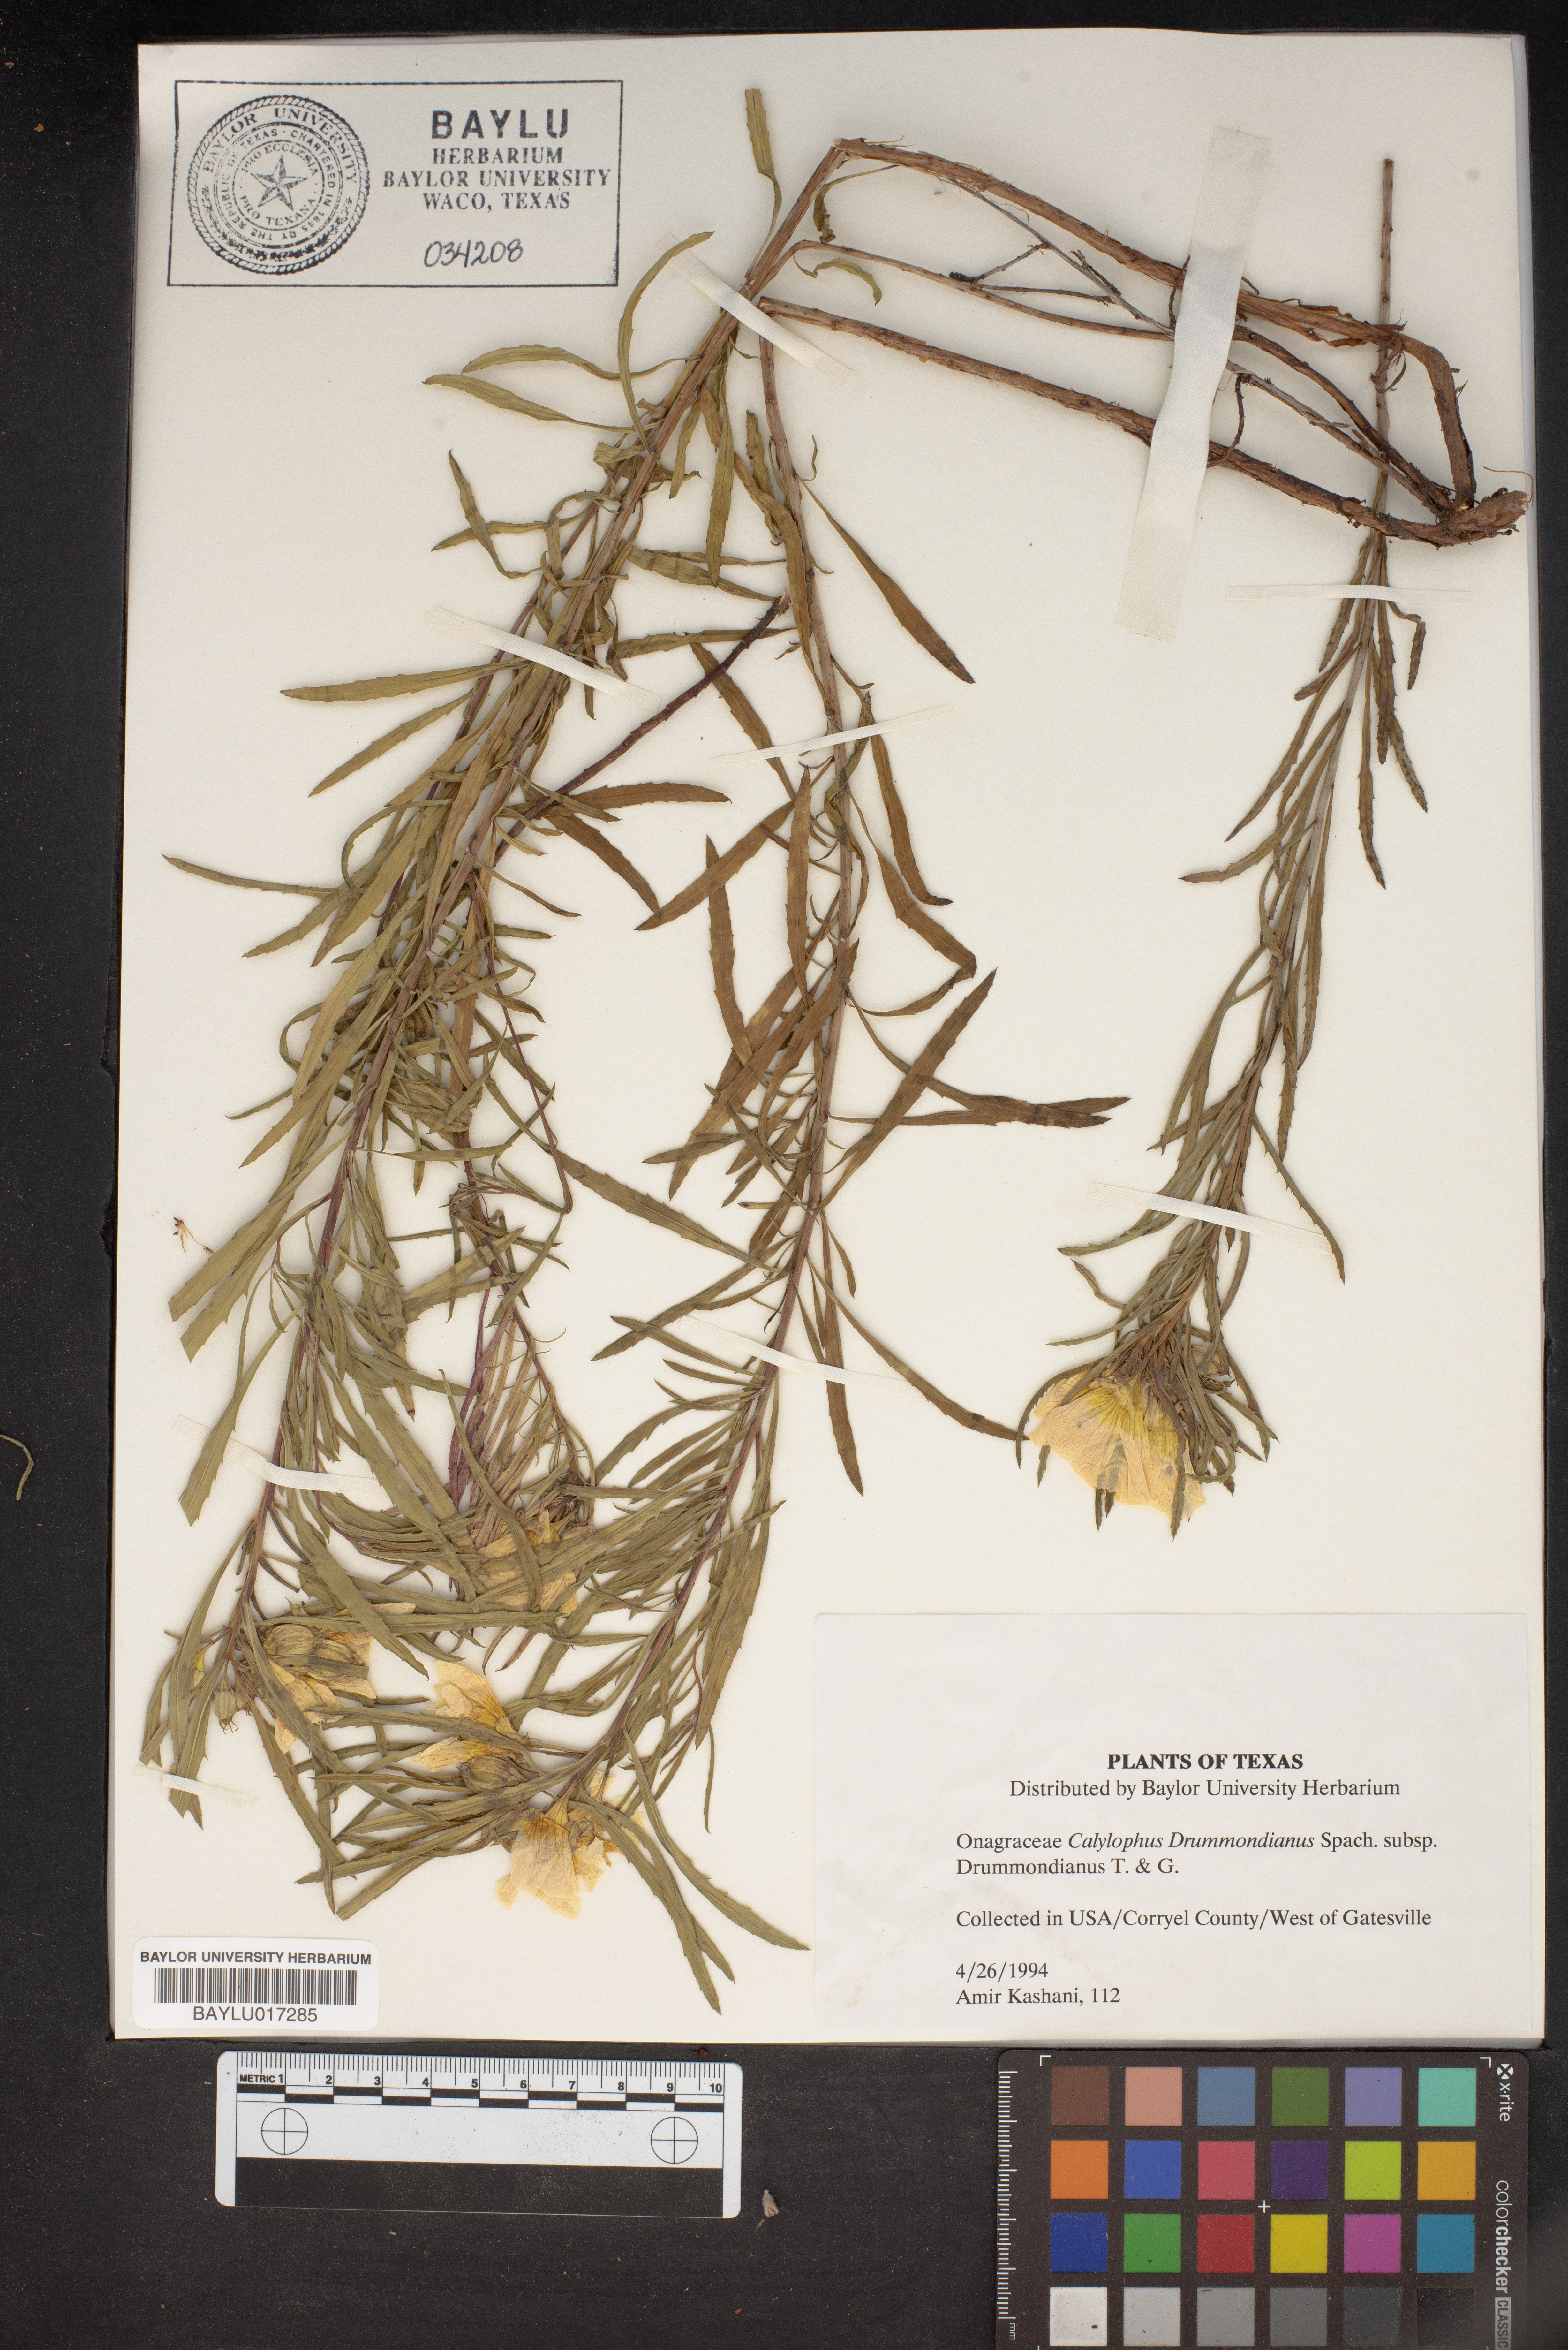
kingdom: Plantae
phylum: Tracheophyta
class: Magnoliopsida
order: Myrtales
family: Onagraceae
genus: Oenothera
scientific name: Oenothera serrulata
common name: Half-shrub calylophus
